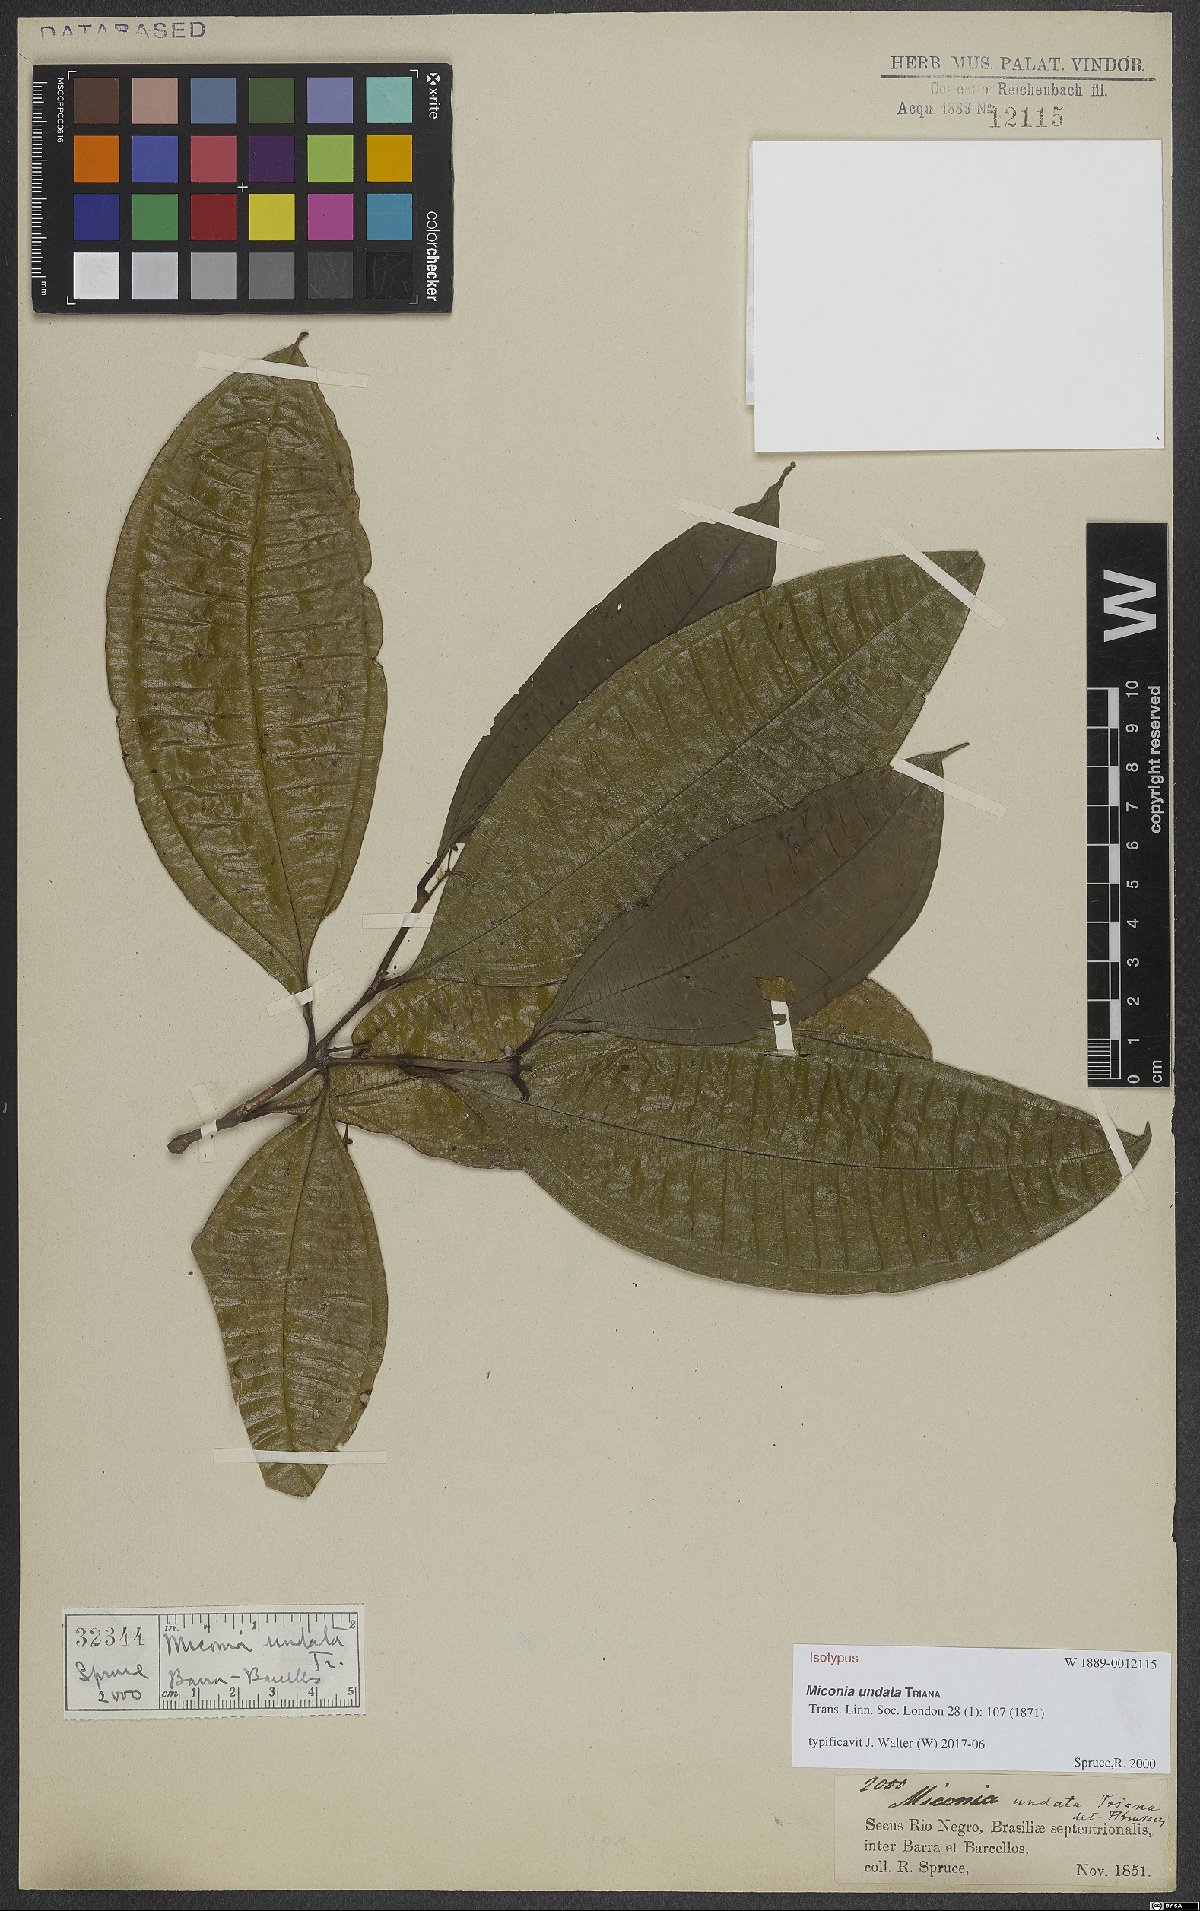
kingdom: Plantae
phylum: Tracheophyta
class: Magnoliopsida
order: Myrtales
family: Melastomataceae
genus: Miconia
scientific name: Miconia undata
